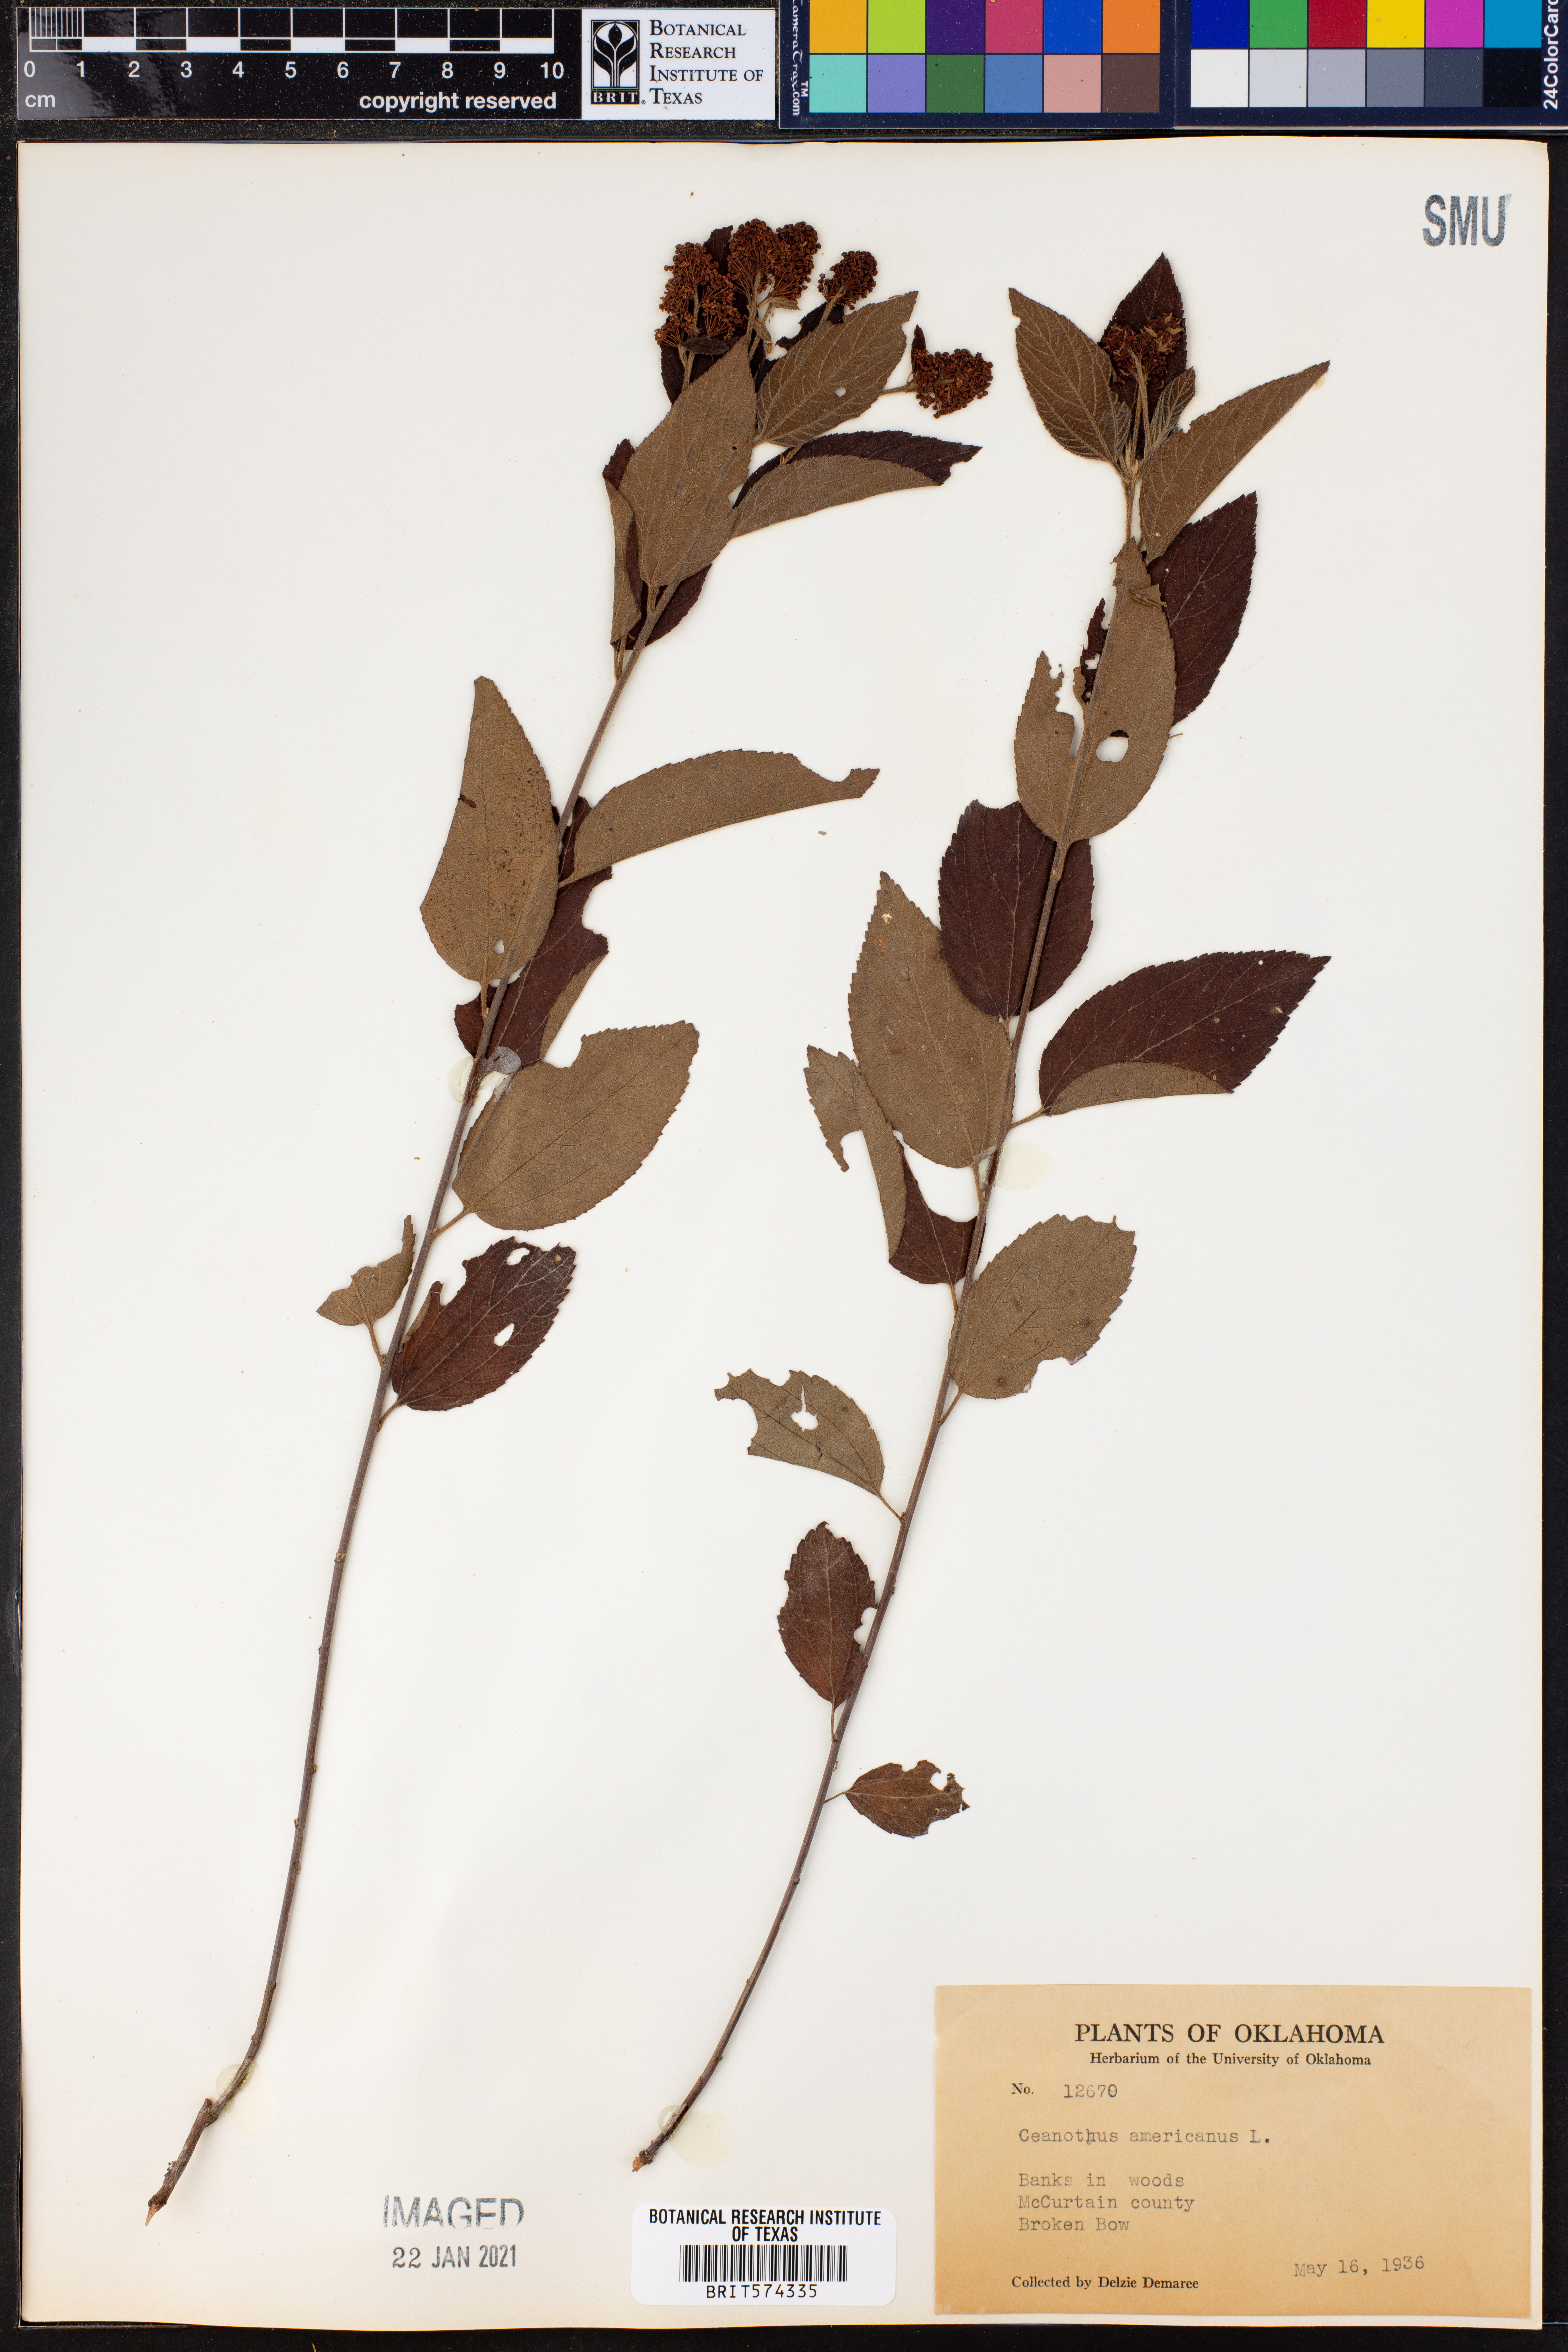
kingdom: Plantae
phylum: Tracheophyta
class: Magnoliopsida
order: Rosales
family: Rhamnaceae
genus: Ceanothus
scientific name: Ceanothus americanus
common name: Redroot
